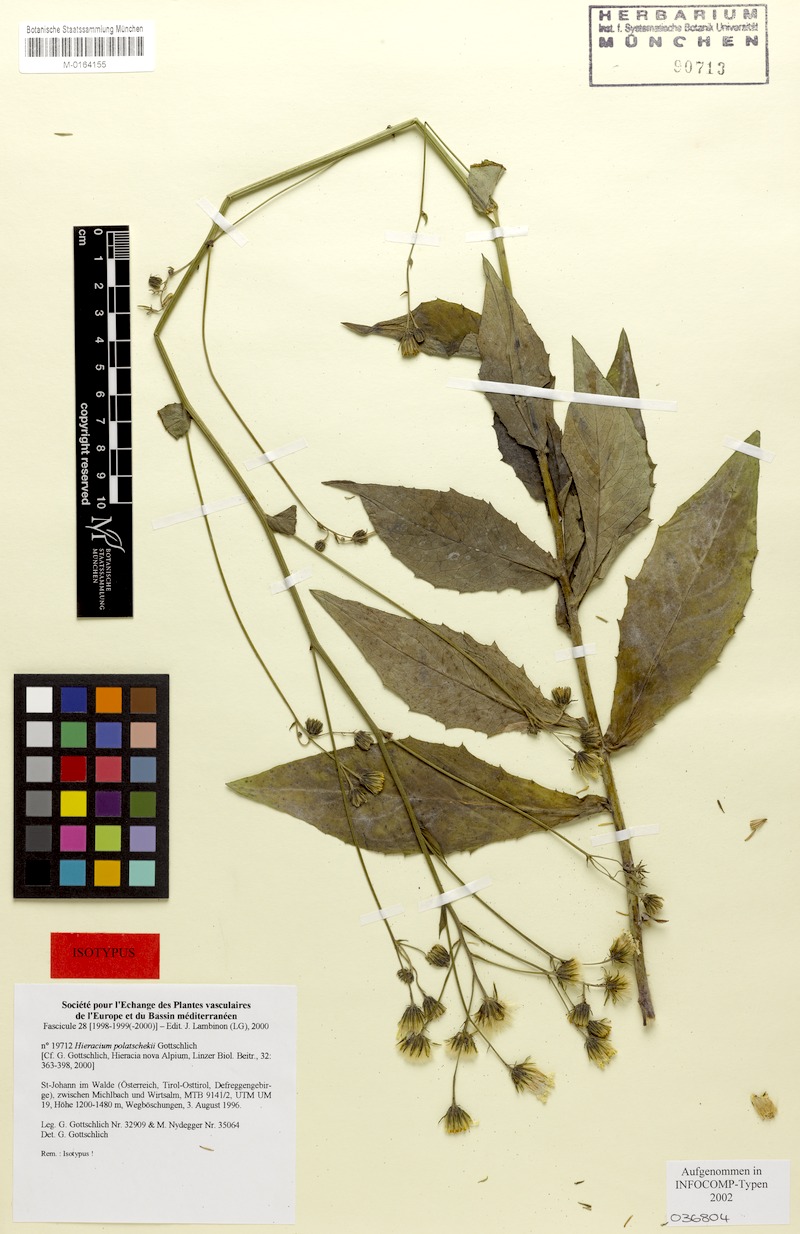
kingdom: Plantae
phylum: Tracheophyta
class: Magnoliopsida
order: Asterales
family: Asteraceae
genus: Hieracium
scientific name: Hieracium polatschekii
